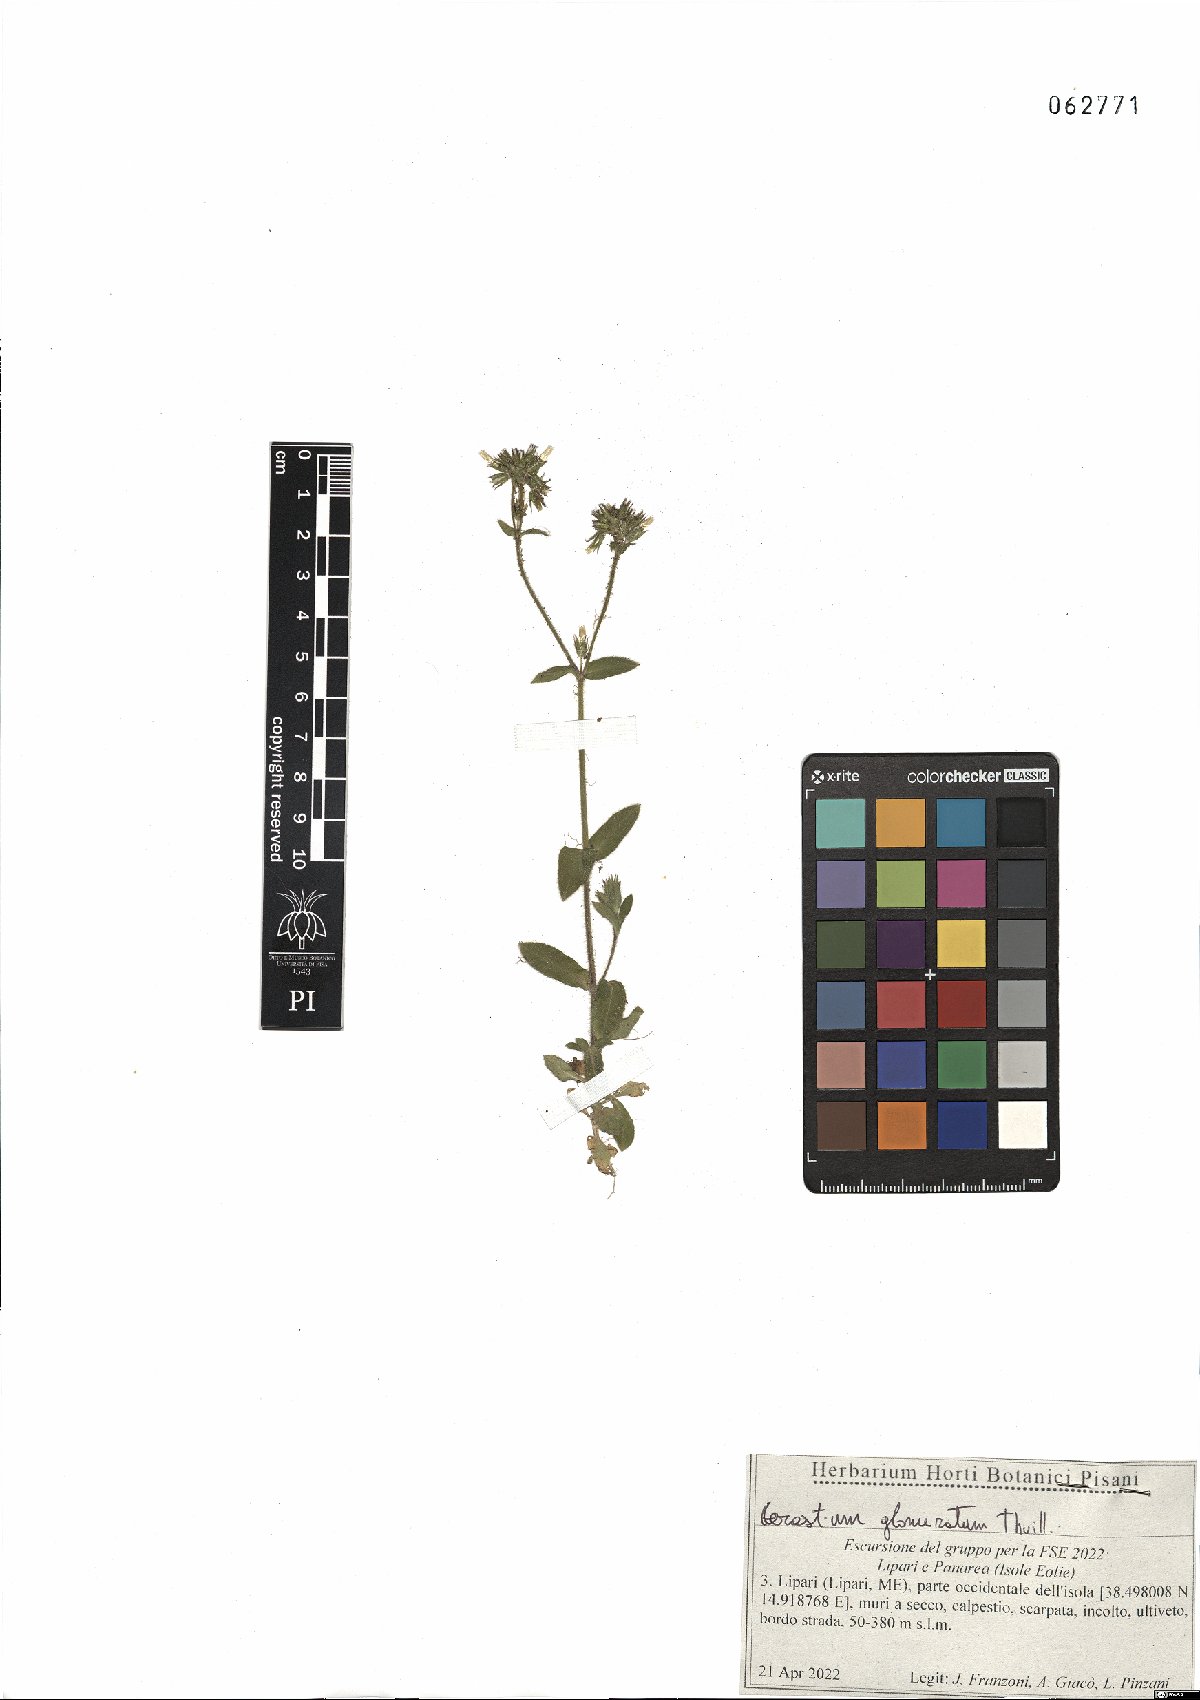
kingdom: Plantae
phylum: Tracheophyta
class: Magnoliopsida
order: Caryophyllales
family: Caryophyllaceae
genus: Cerastium
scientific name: Cerastium glomeratum
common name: Sticky chickweed
